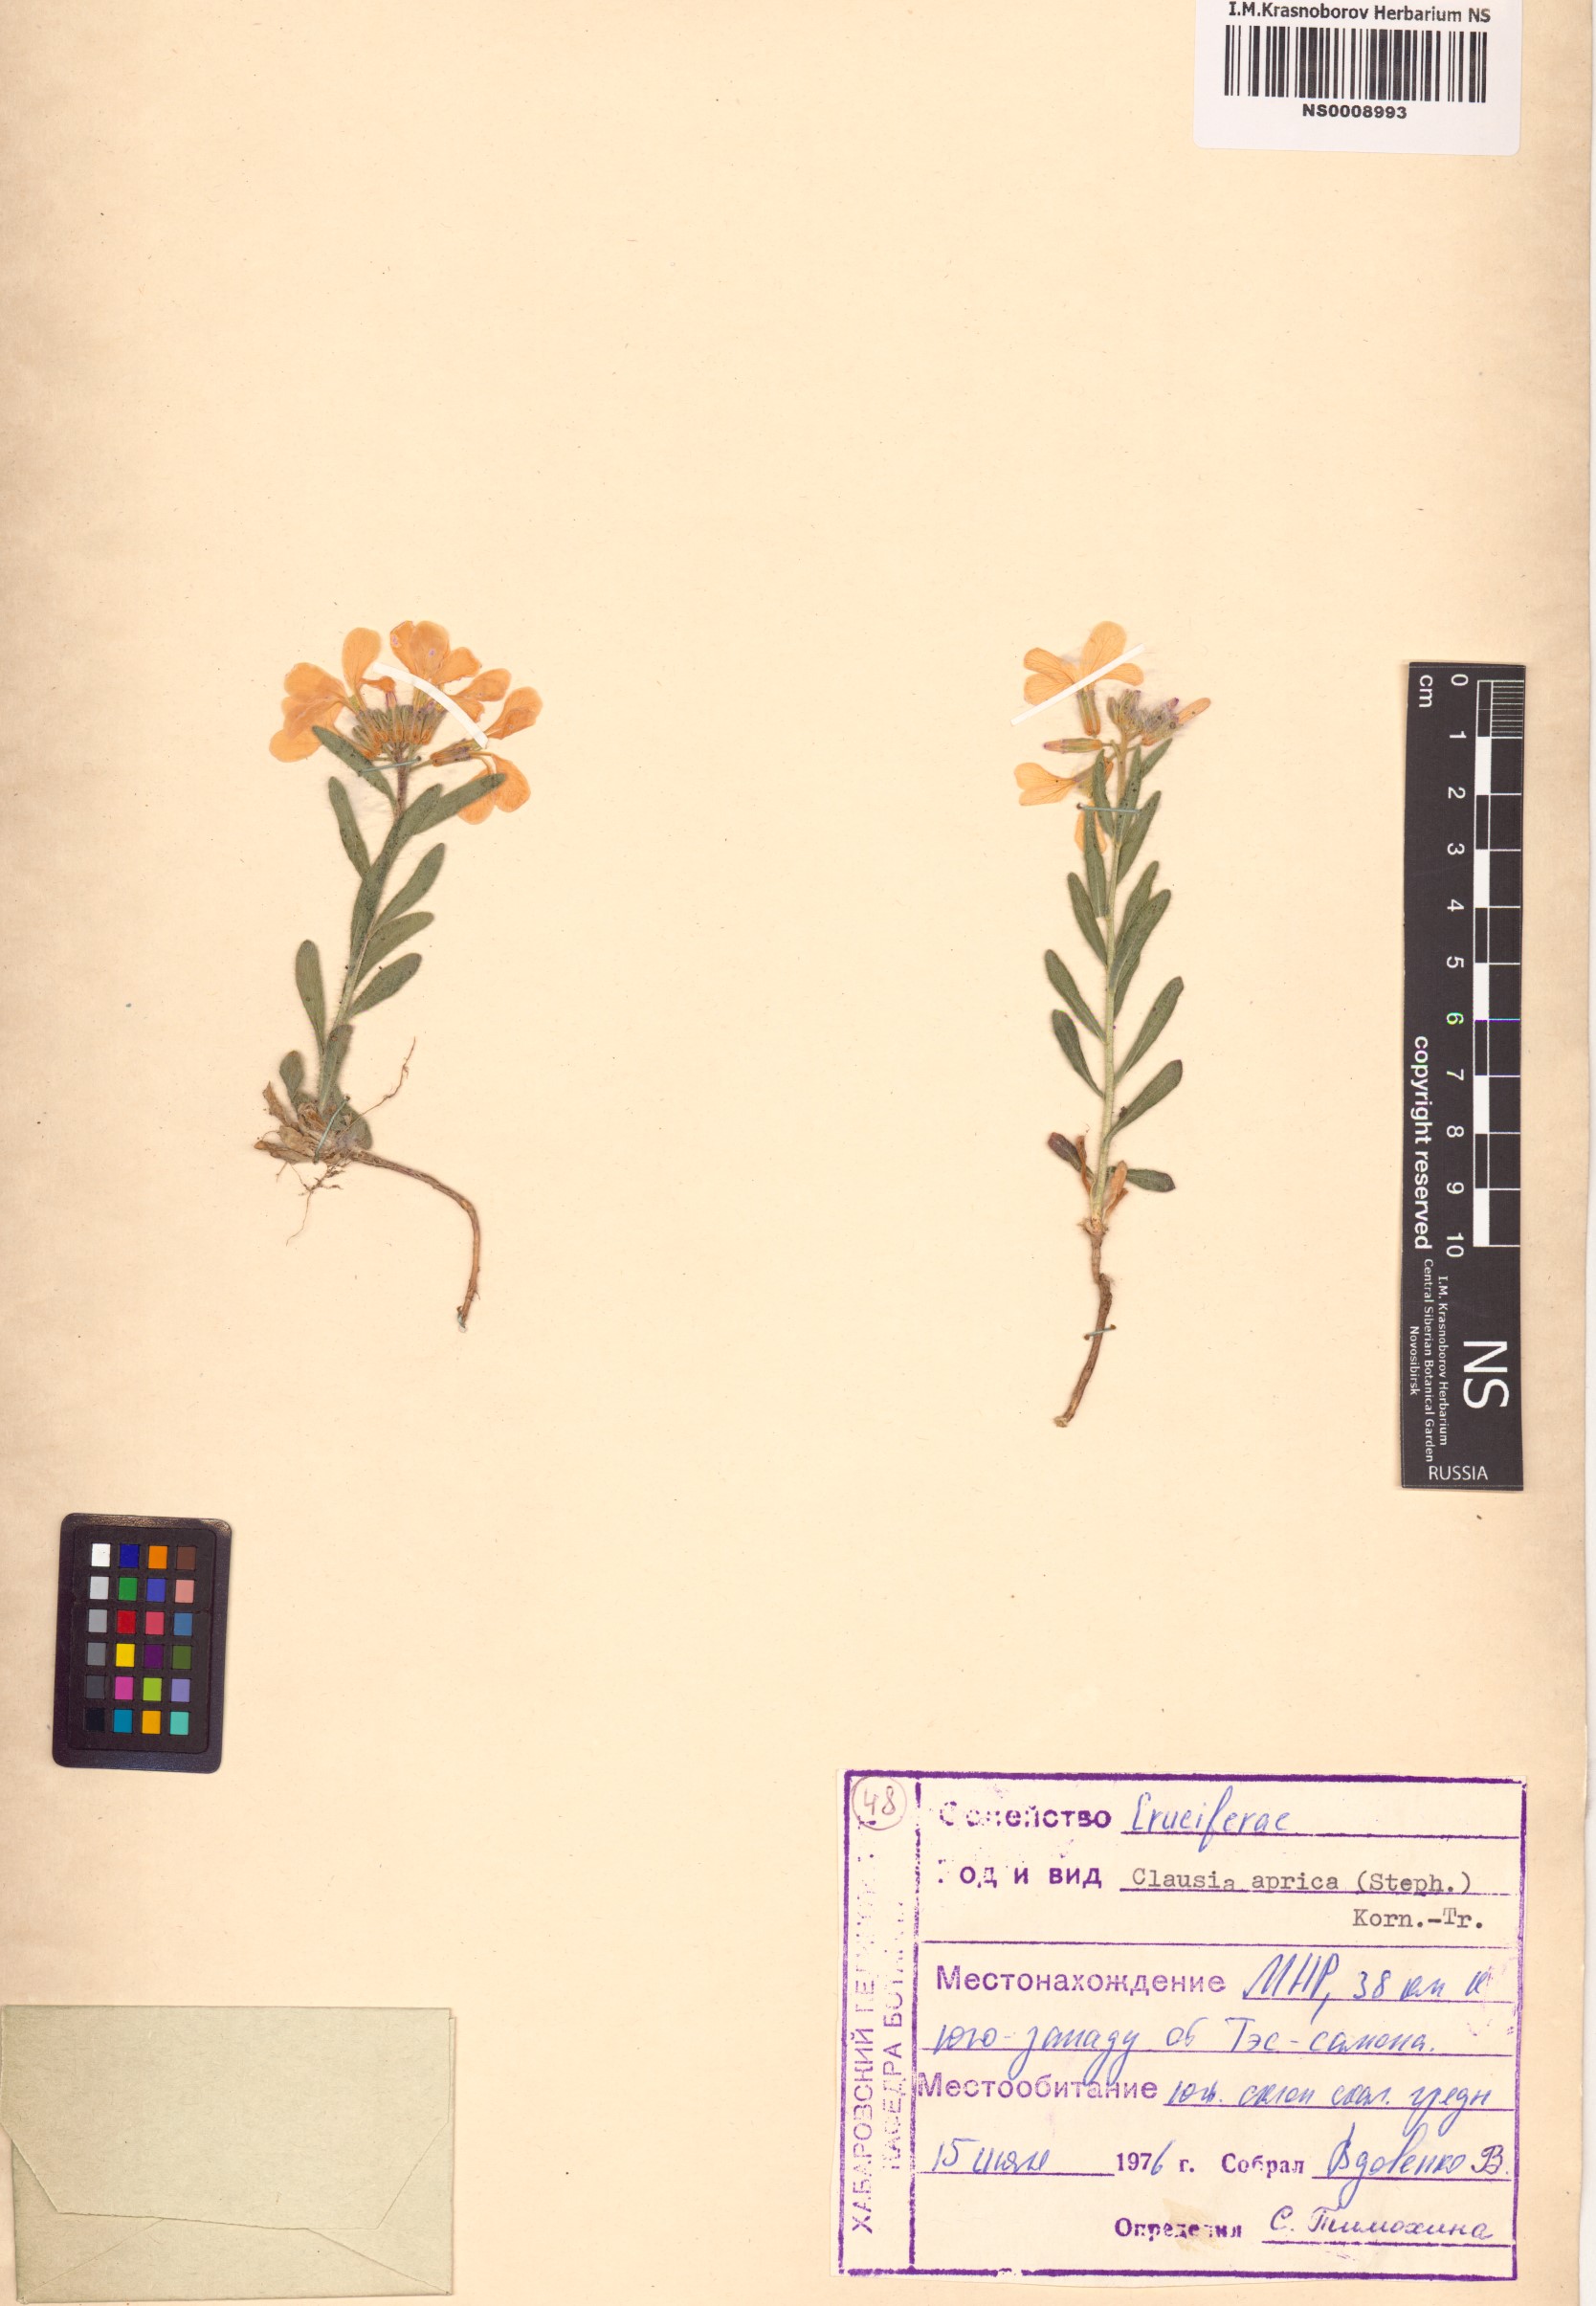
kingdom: Plantae
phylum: Tracheophyta
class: Magnoliopsida
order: Brassicales
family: Brassicaceae
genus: Clausia
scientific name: Clausia aprica
